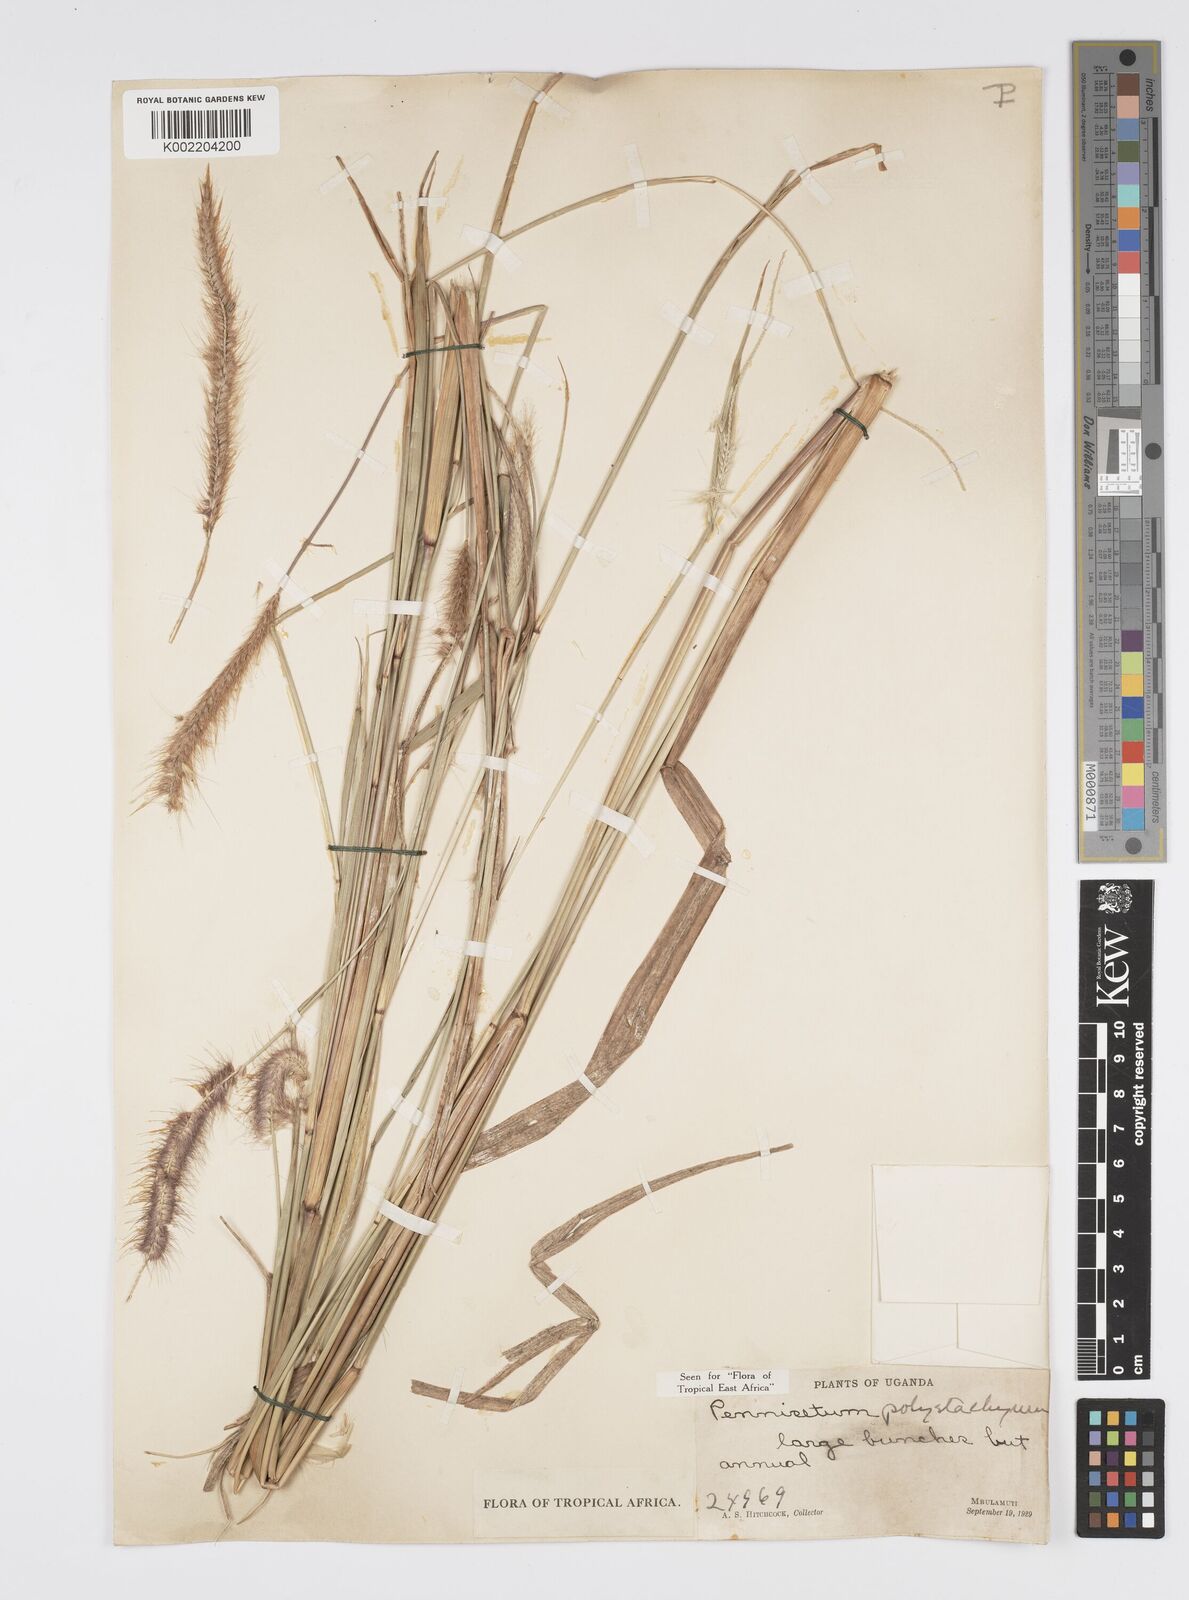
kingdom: Plantae
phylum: Tracheophyta
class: Liliopsida
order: Poales
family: Poaceae
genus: Setaria
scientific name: Setaria parviflora
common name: Knotroot bristle-grass
